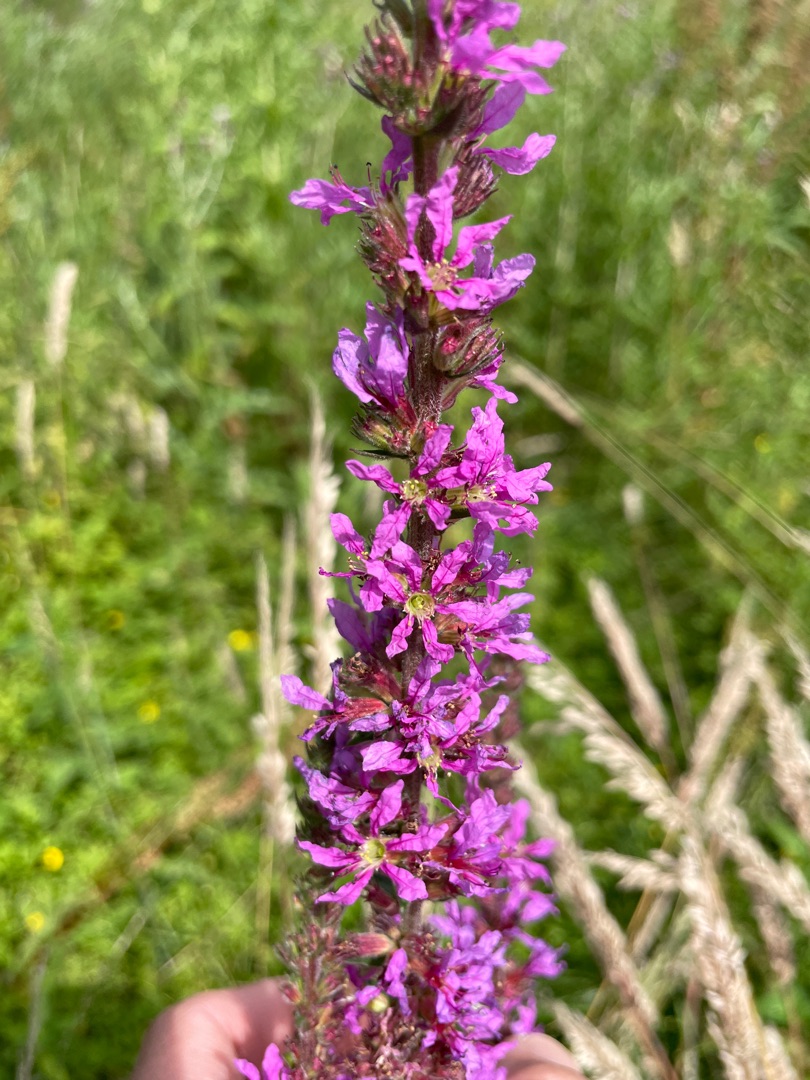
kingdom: Plantae
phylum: Tracheophyta
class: Magnoliopsida
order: Myrtales
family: Lythraceae
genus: Lythrum
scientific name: Lythrum salicaria
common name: Kattehale
